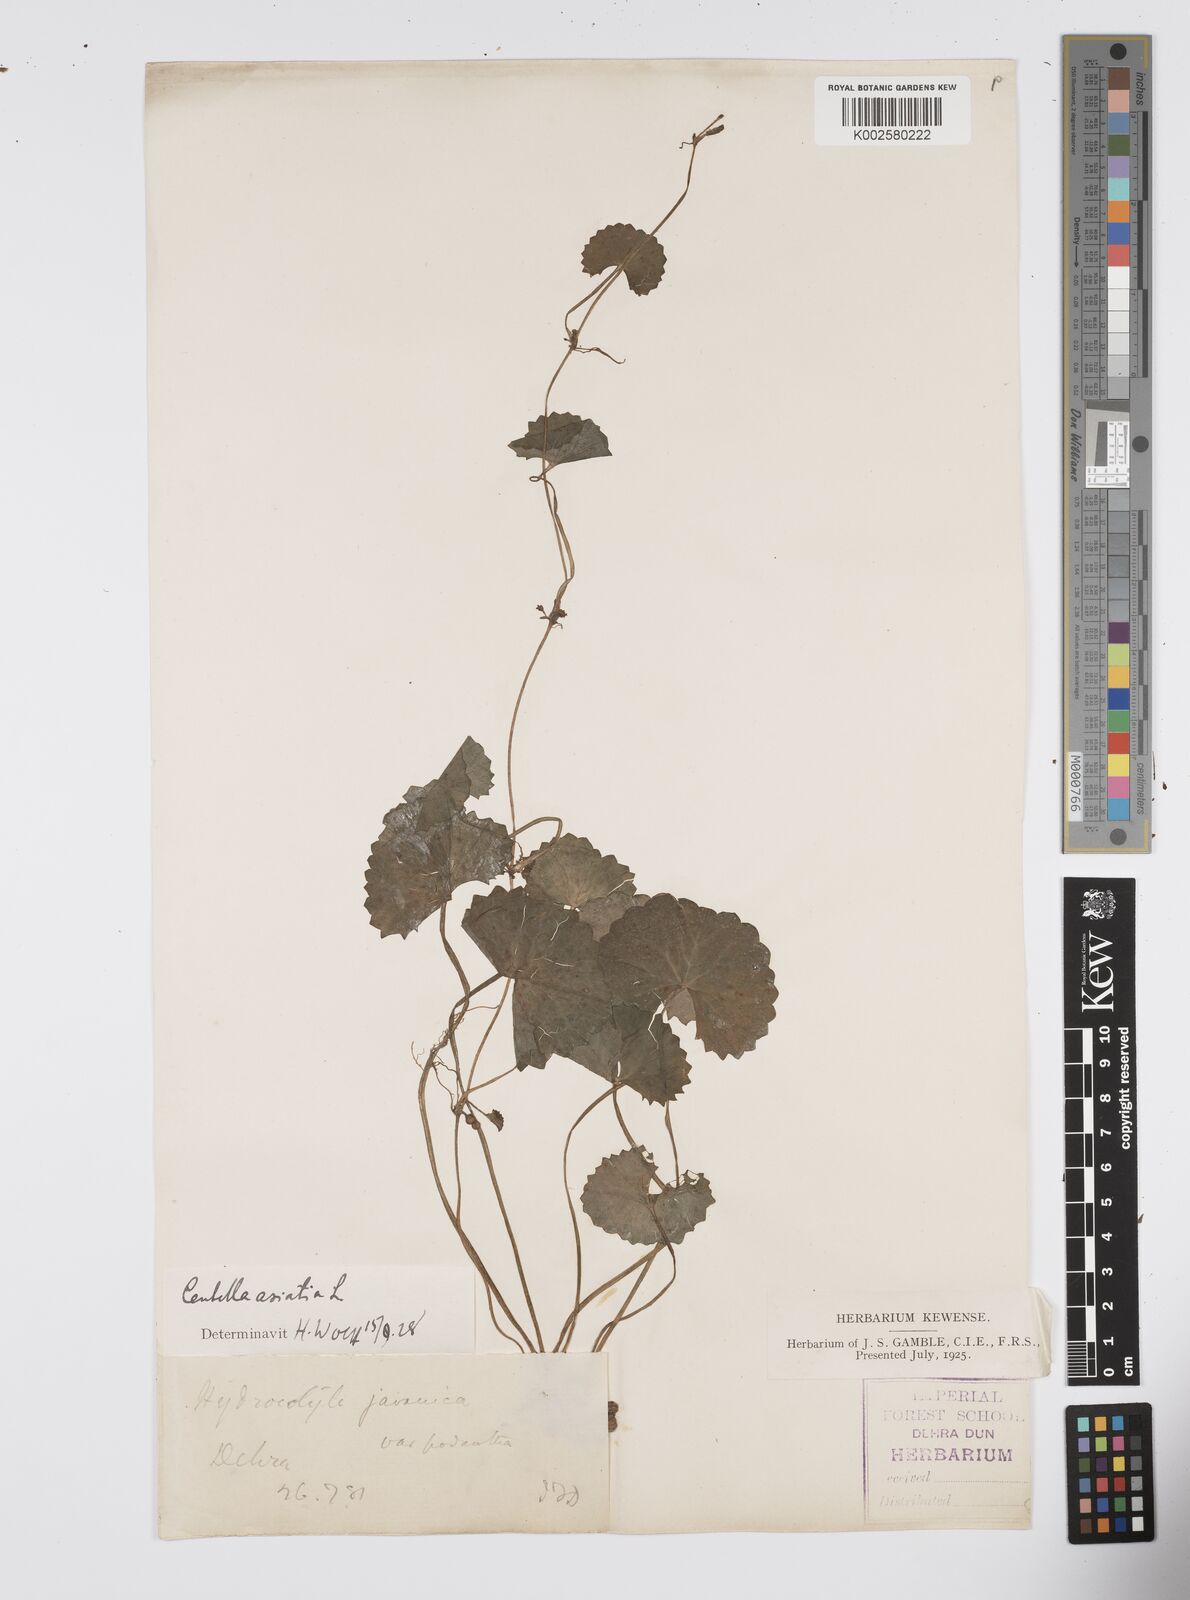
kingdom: Plantae
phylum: Tracheophyta
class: Magnoliopsida
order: Apiales
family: Apiaceae
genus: Centella
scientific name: Centella asiatica
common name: Spadeleaf
